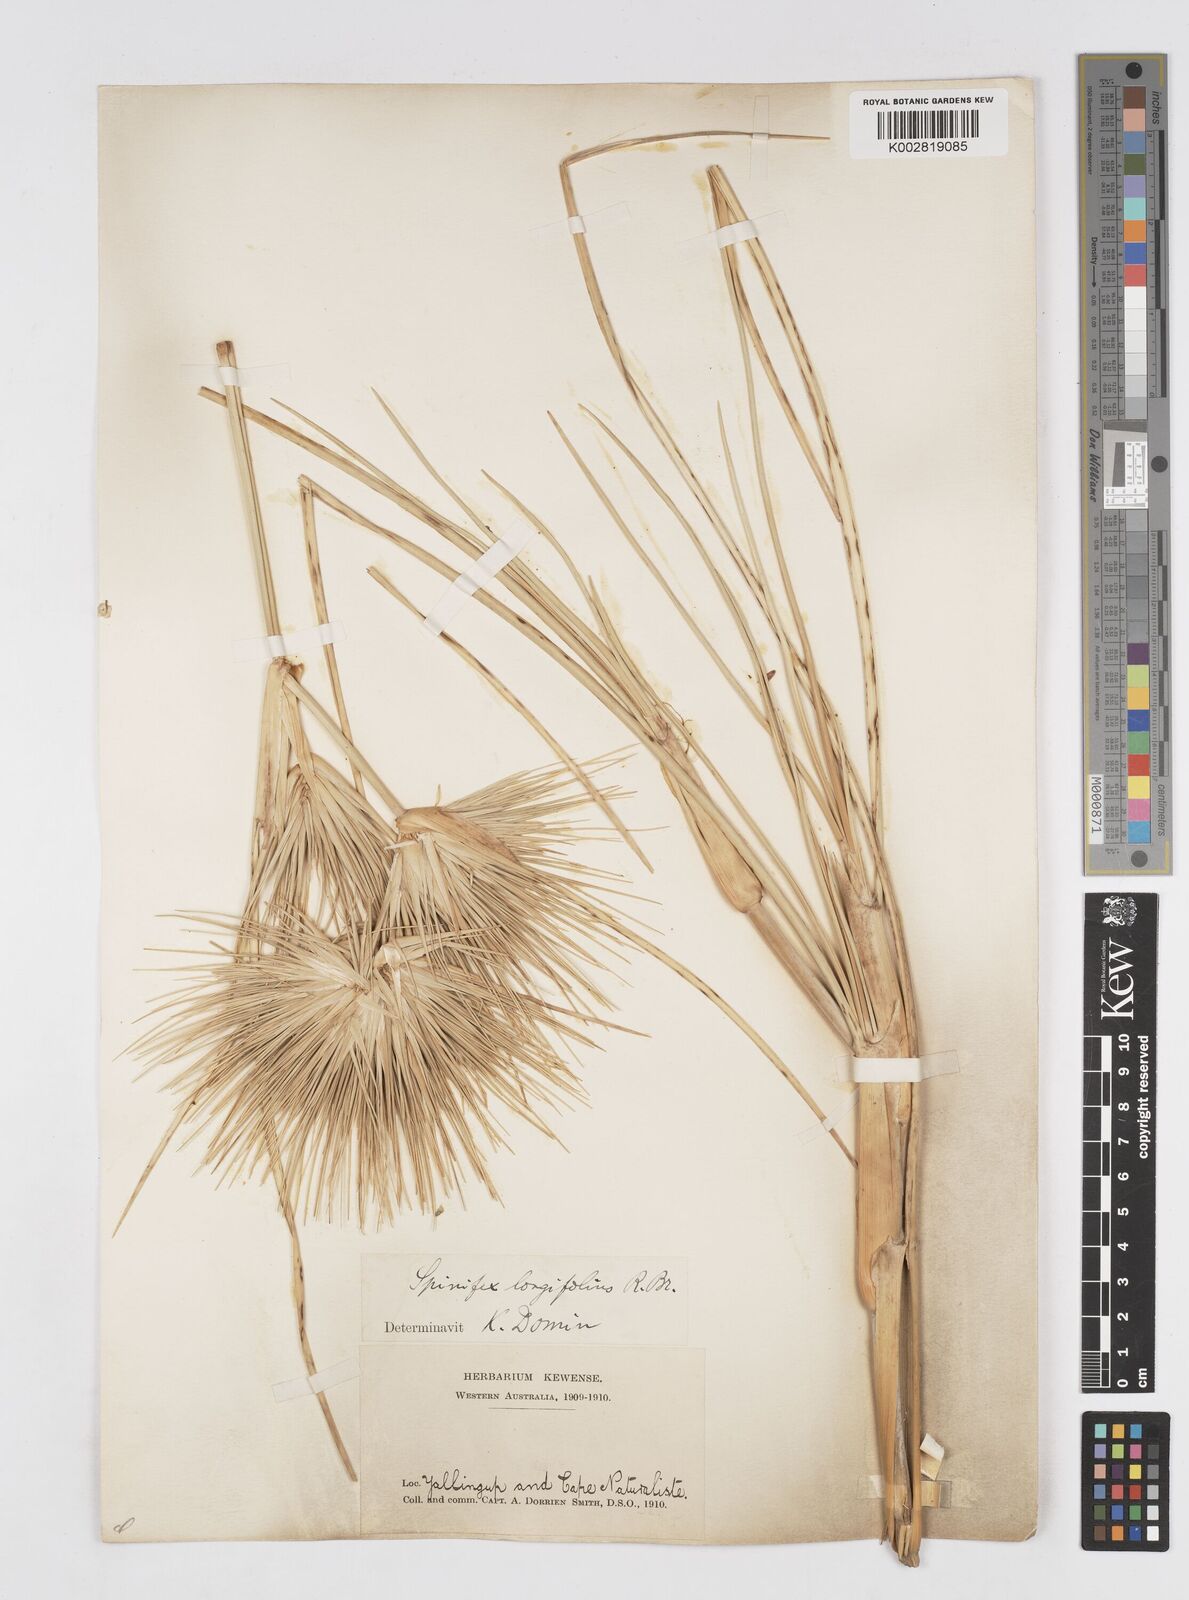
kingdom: Plantae
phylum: Tracheophyta
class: Liliopsida
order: Poales
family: Poaceae
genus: Spinifex
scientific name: Spinifex longifolius
